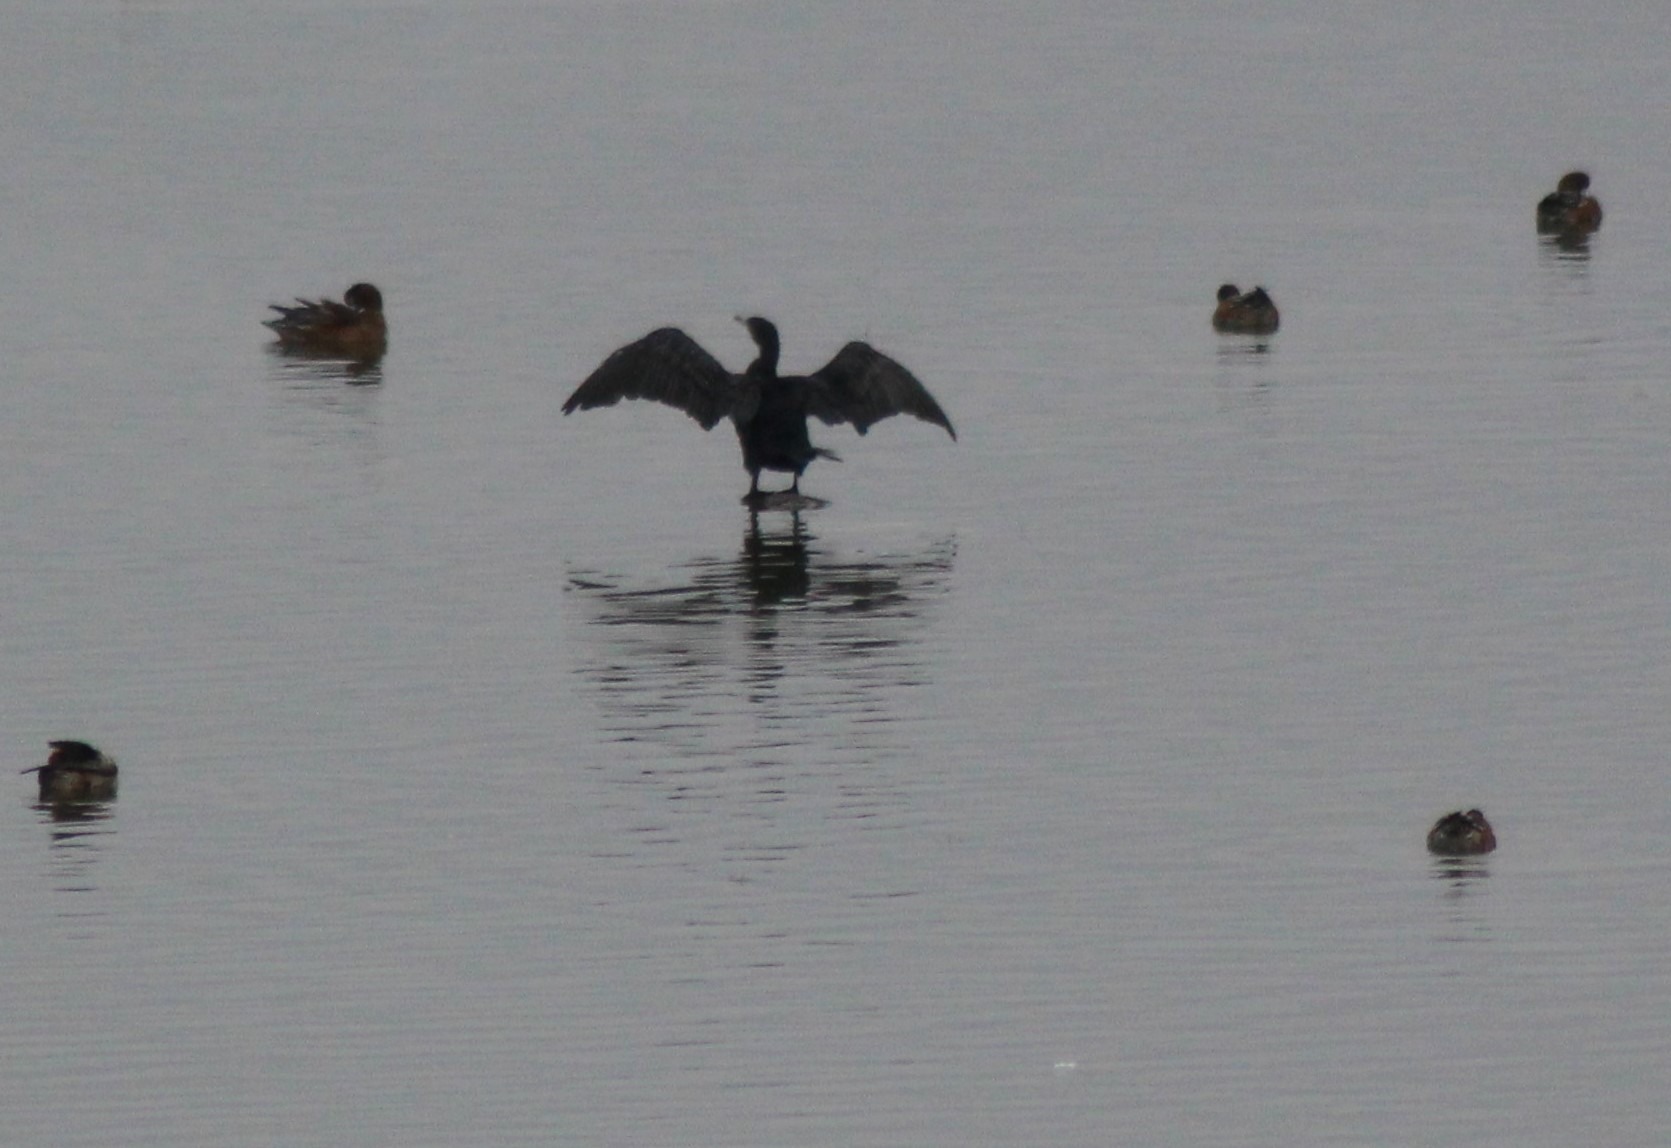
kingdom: Animalia
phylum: Chordata
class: Aves
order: Suliformes
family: Phalacrocoracidae
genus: Phalacrocorax
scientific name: Phalacrocorax carbo
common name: Skarv
